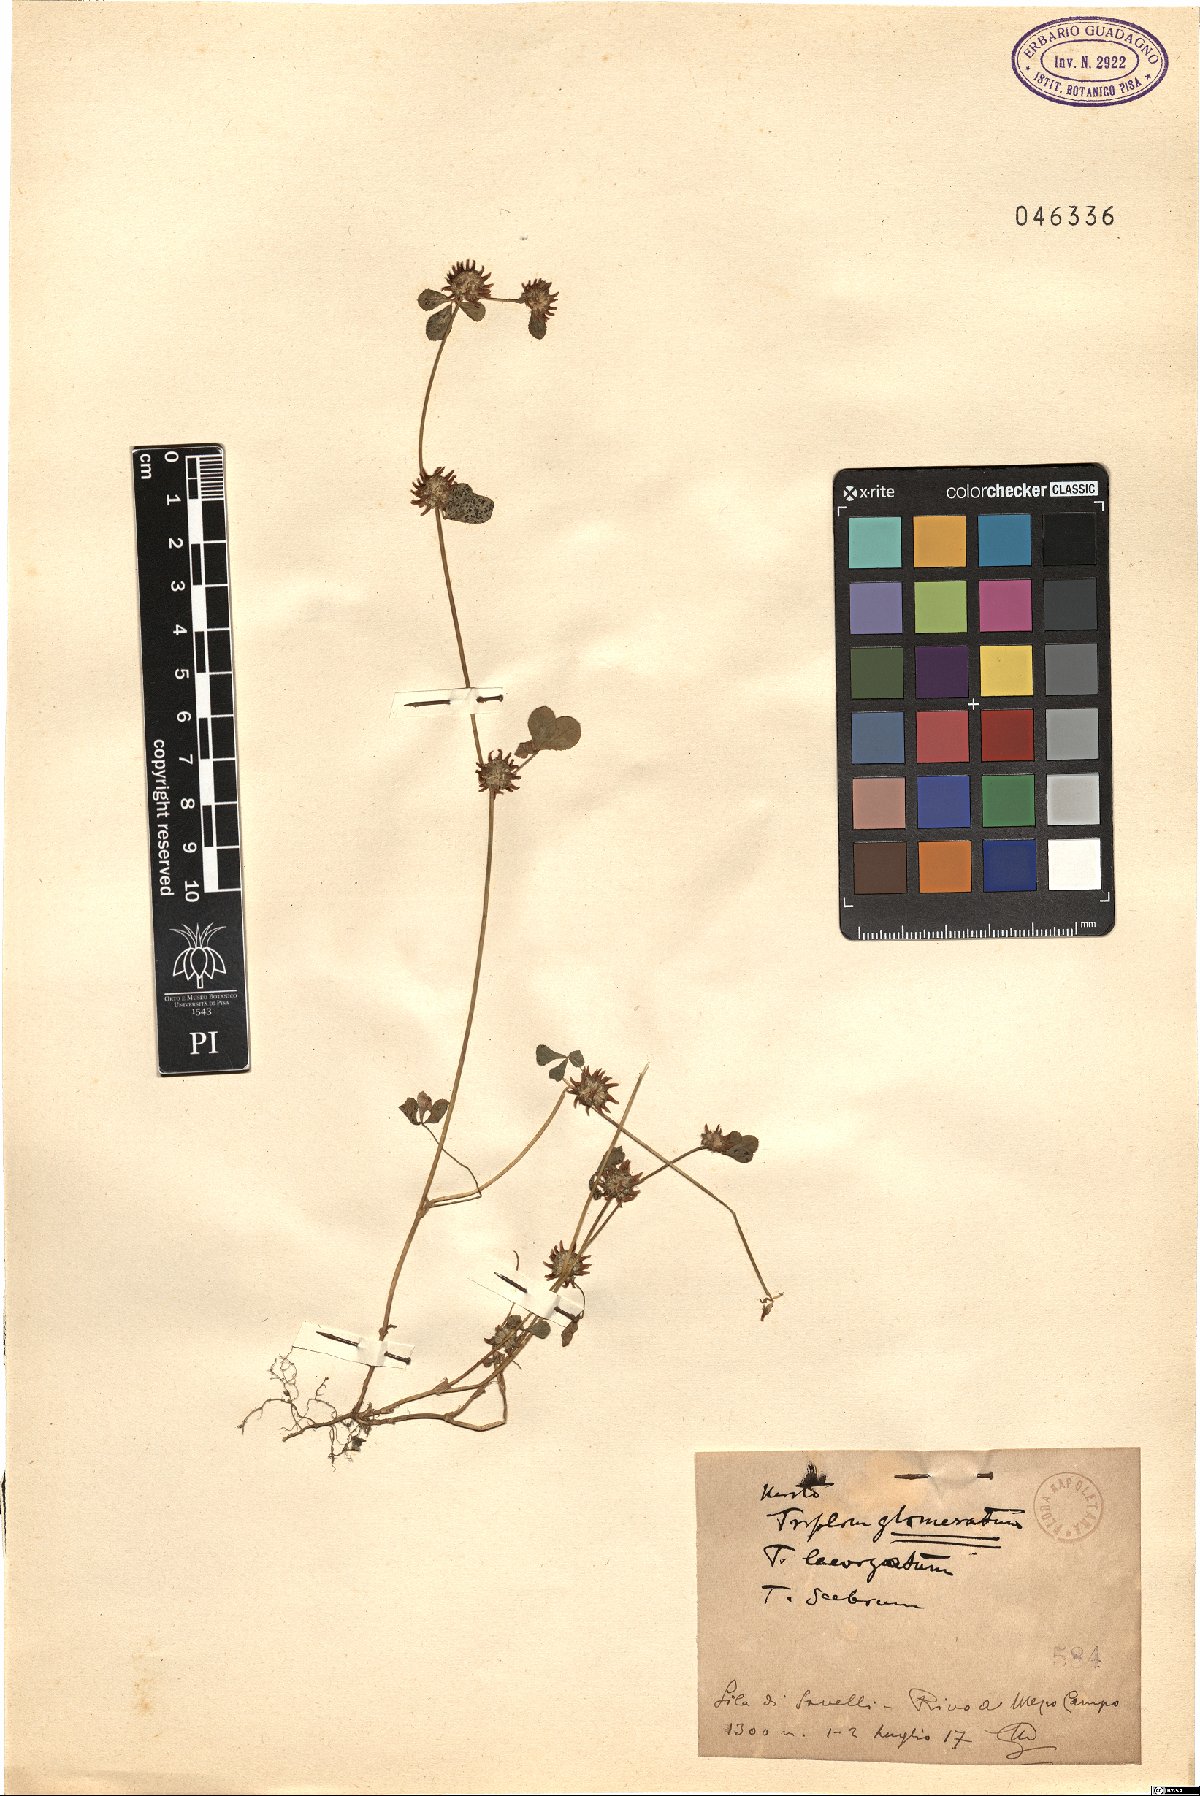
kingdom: Plantae
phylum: Tracheophyta
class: Magnoliopsida
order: Fabales
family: Fabaceae
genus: Trifolium
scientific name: Trifolium glomeratum
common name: Clustered clover
